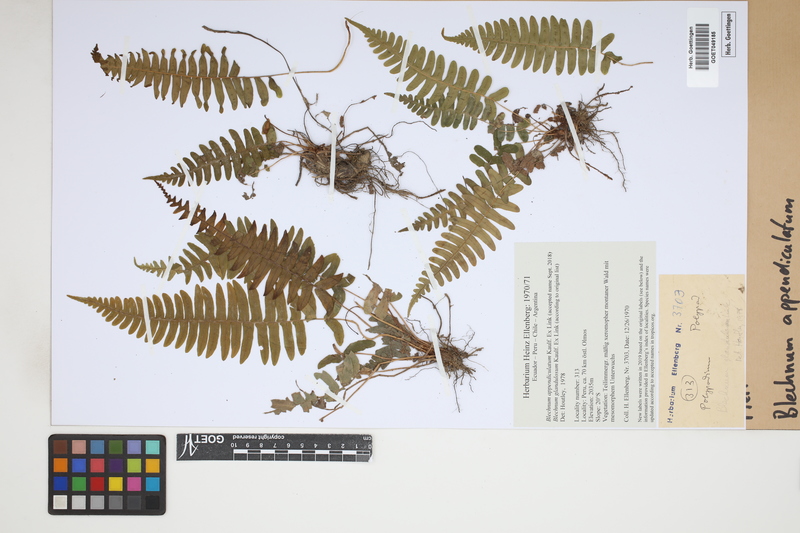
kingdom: Plantae
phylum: Tracheophyta
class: Polypodiopsida
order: Polypodiales
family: Blechnaceae
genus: Blechnum
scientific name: Blechnum appendiculatum
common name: Palm fern
